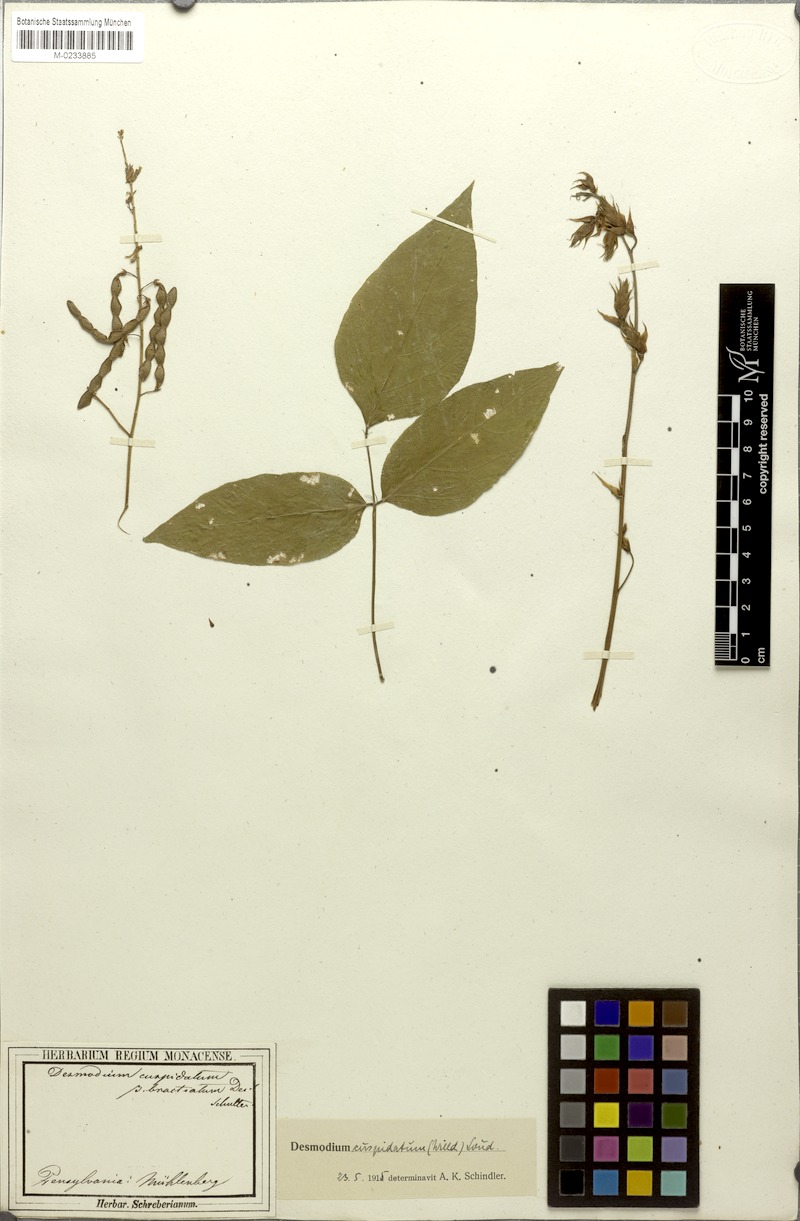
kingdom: Plantae
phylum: Tracheophyta
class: Magnoliopsida
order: Fabales
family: Fabaceae
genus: Desmodium
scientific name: Desmodium cuspidatum
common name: Big tick trefoil
